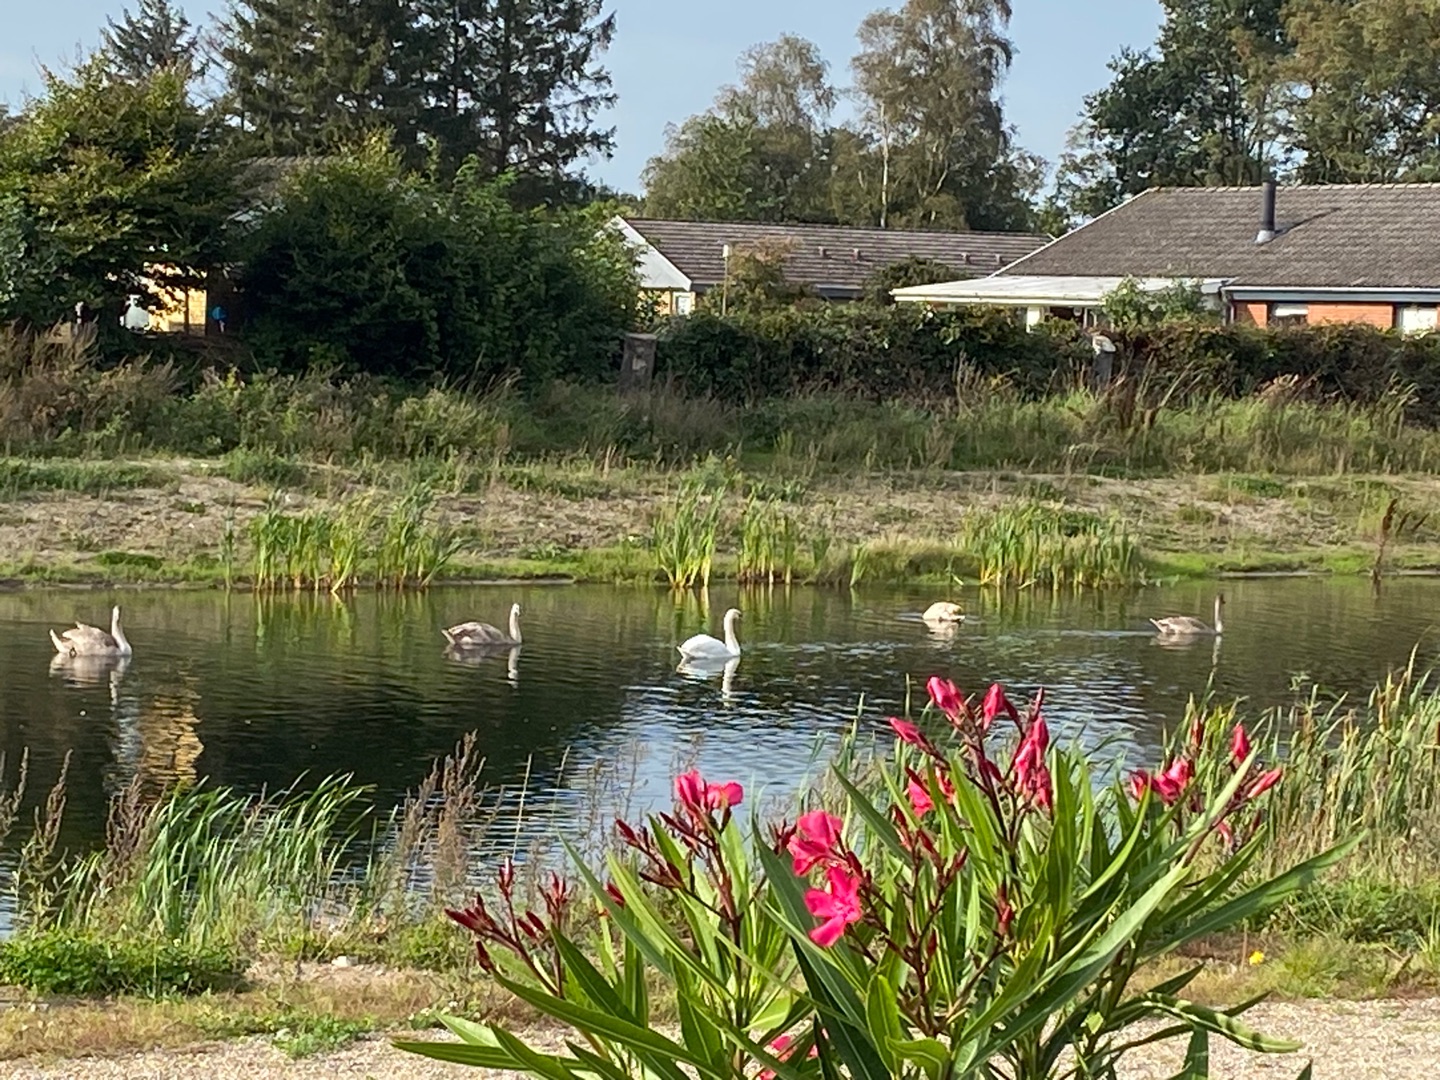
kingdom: Animalia
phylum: Chordata
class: Aves
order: Anseriformes
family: Anatidae
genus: Cygnus
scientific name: Cygnus olor
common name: Knopsvane
